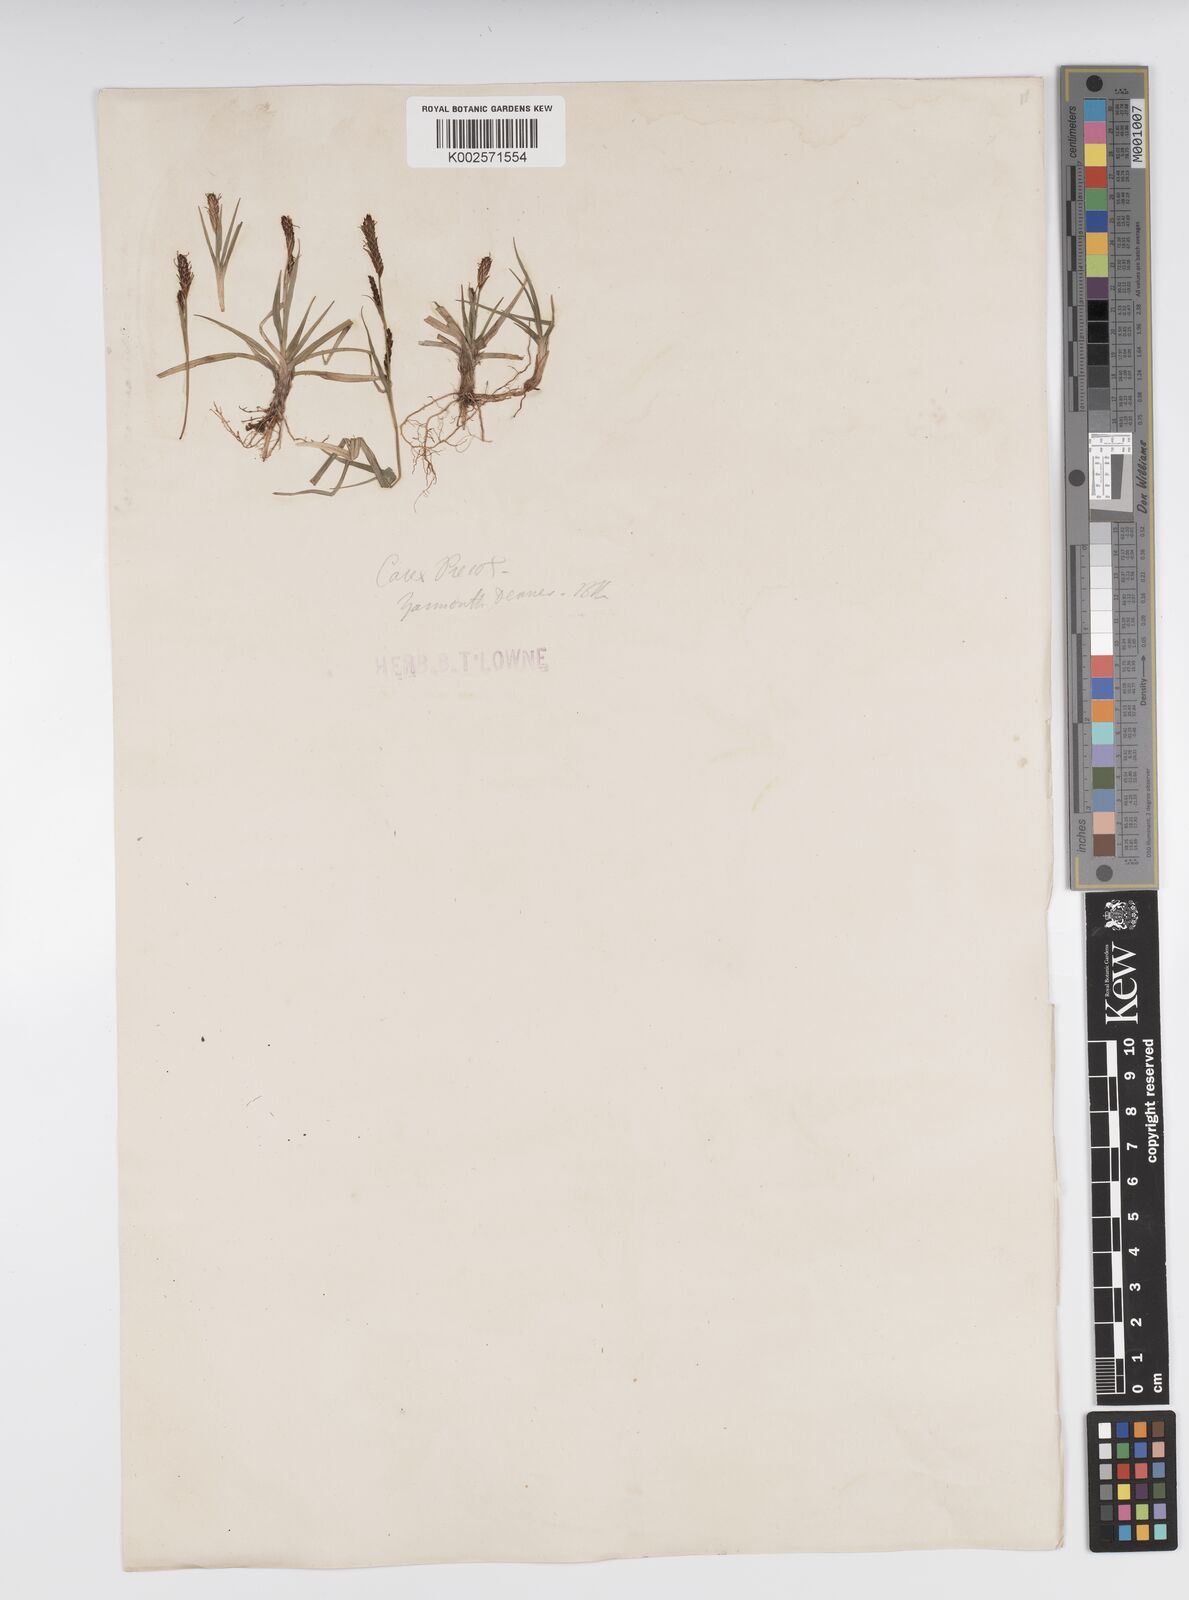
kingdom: Plantae
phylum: Tracheophyta
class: Liliopsida
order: Poales
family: Cyperaceae
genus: Carex
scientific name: Carex caryophyllea
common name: Spring sedge
